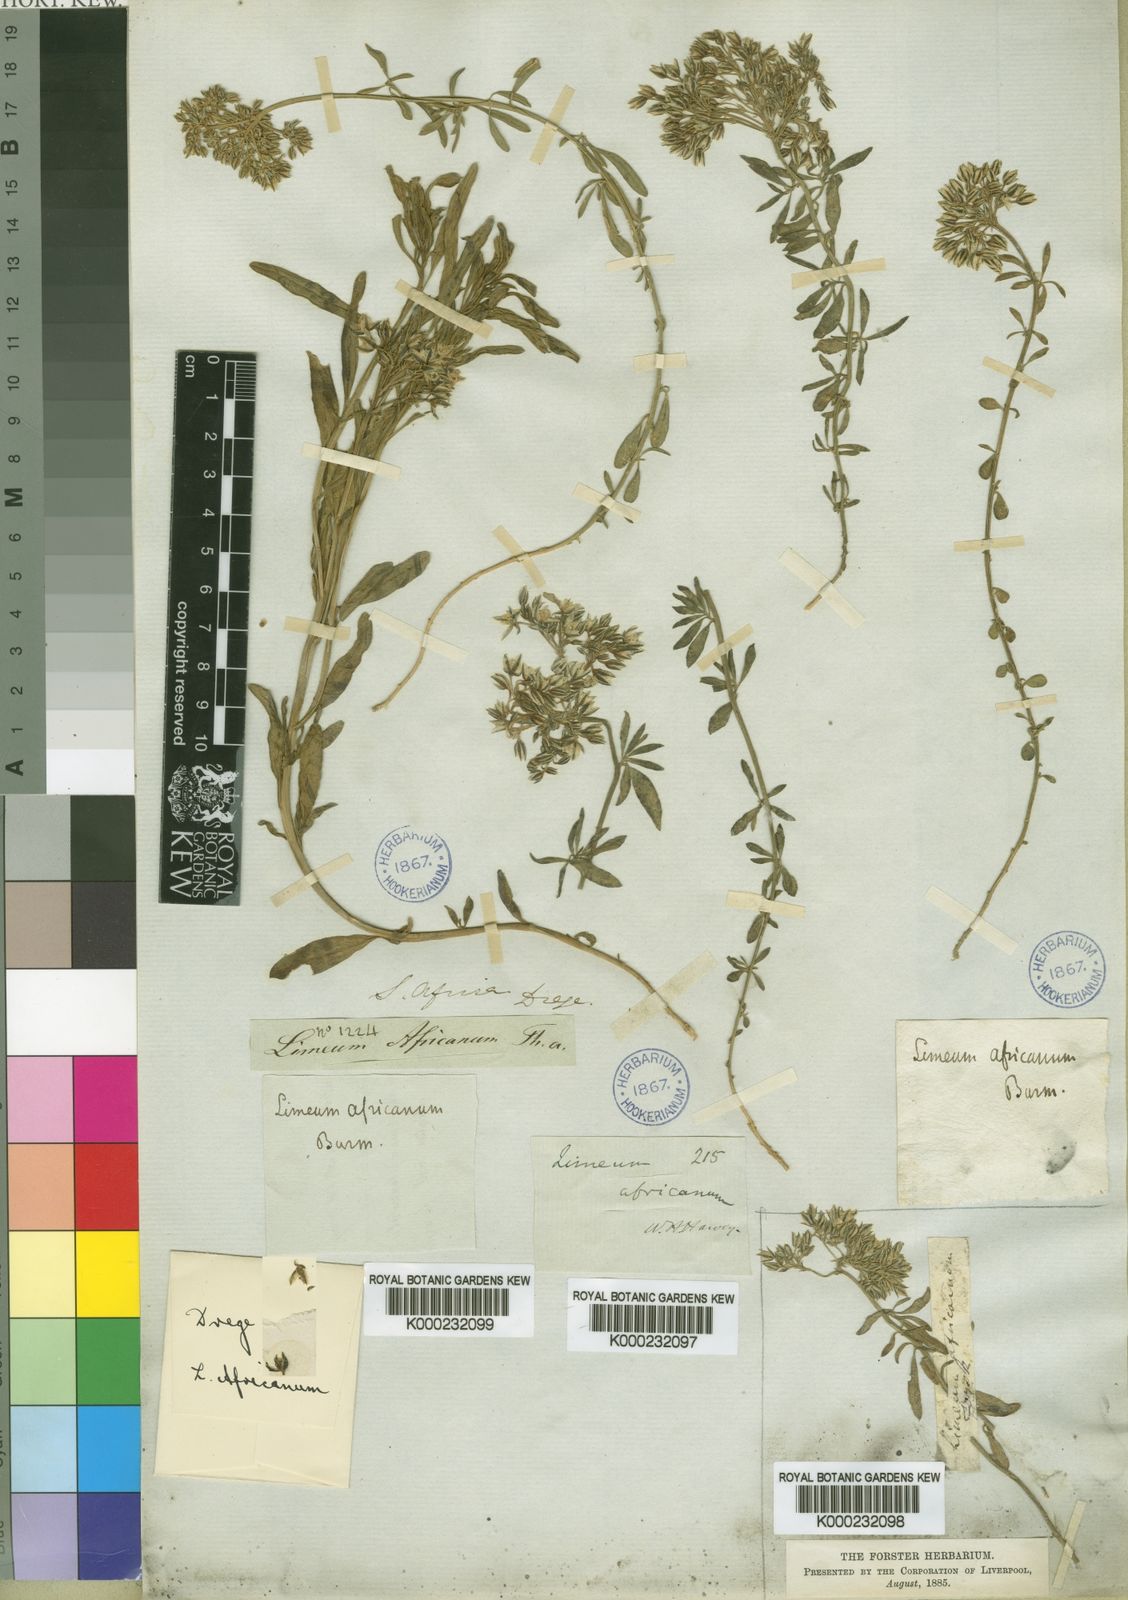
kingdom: Plantae
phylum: Tracheophyta
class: Magnoliopsida
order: Caryophyllales
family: Limeaceae
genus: Limeum
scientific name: Limeum
